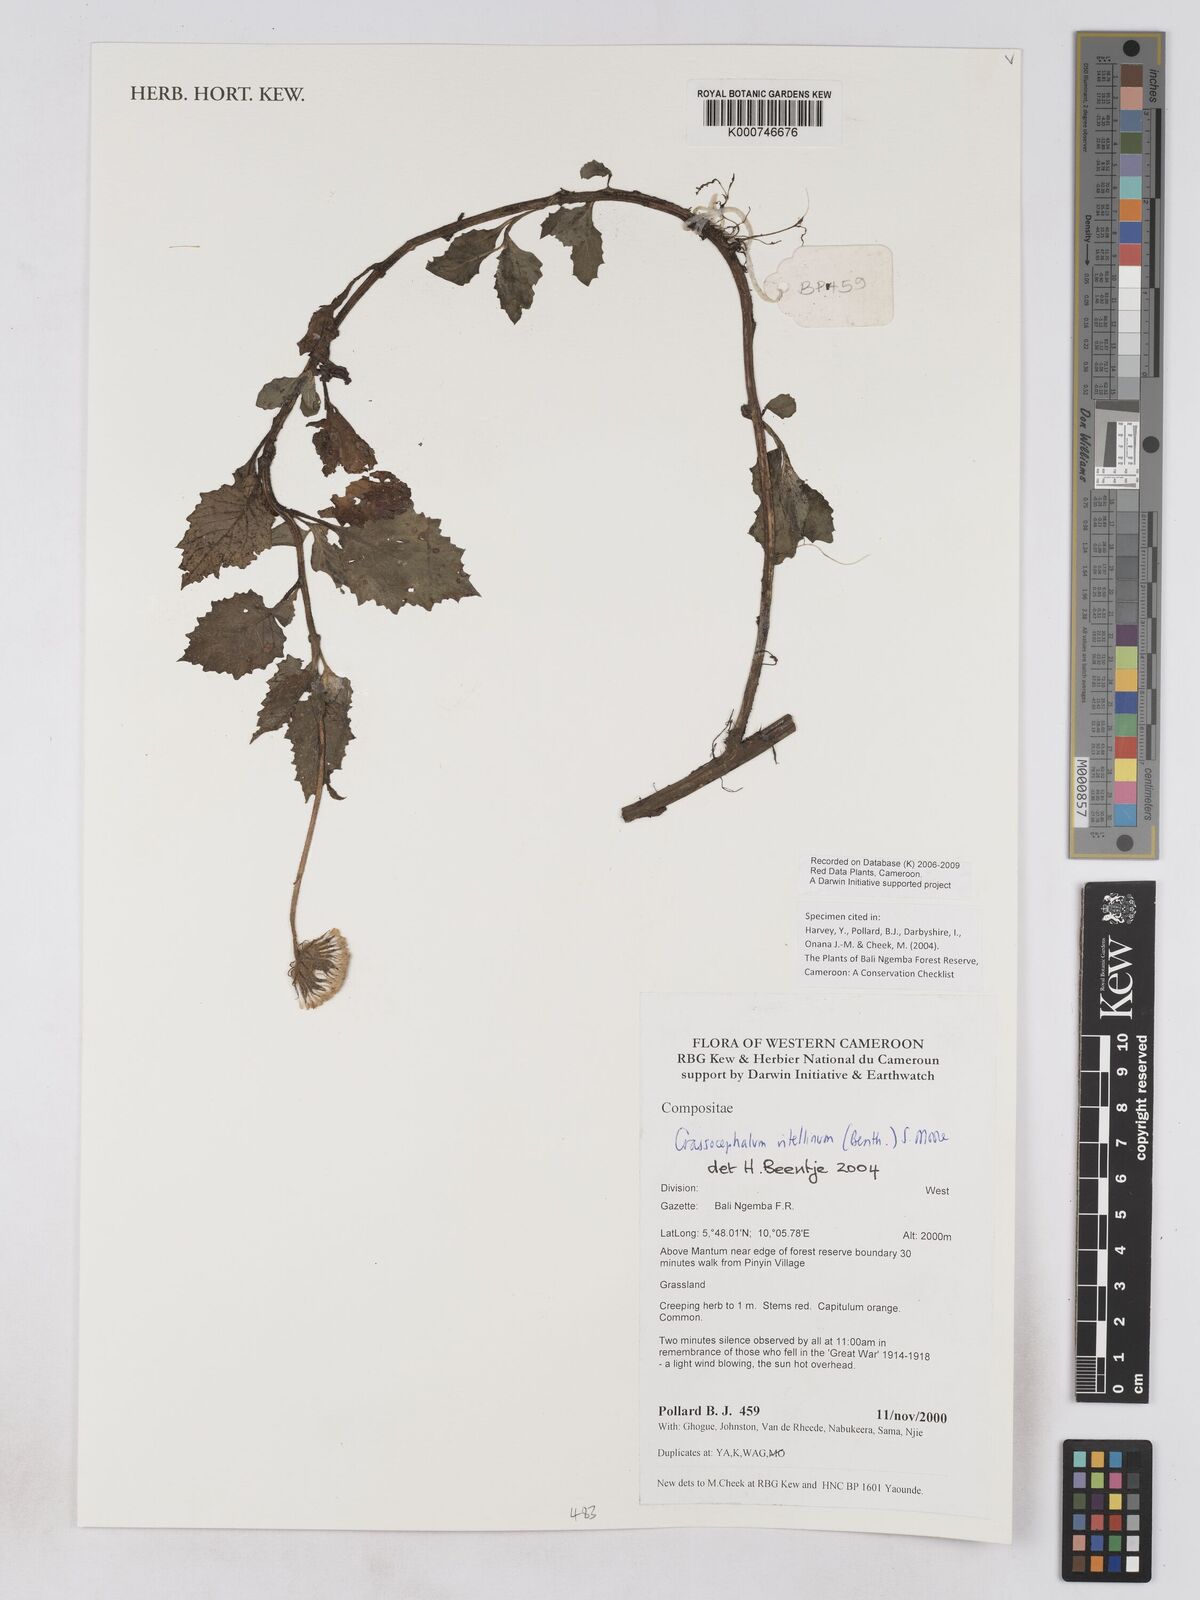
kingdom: Plantae
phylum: Tracheophyta
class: Magnoliopsida
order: Asterales
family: Asteraceae
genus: Crassocephalum
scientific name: Crassocephalum vitellinum
